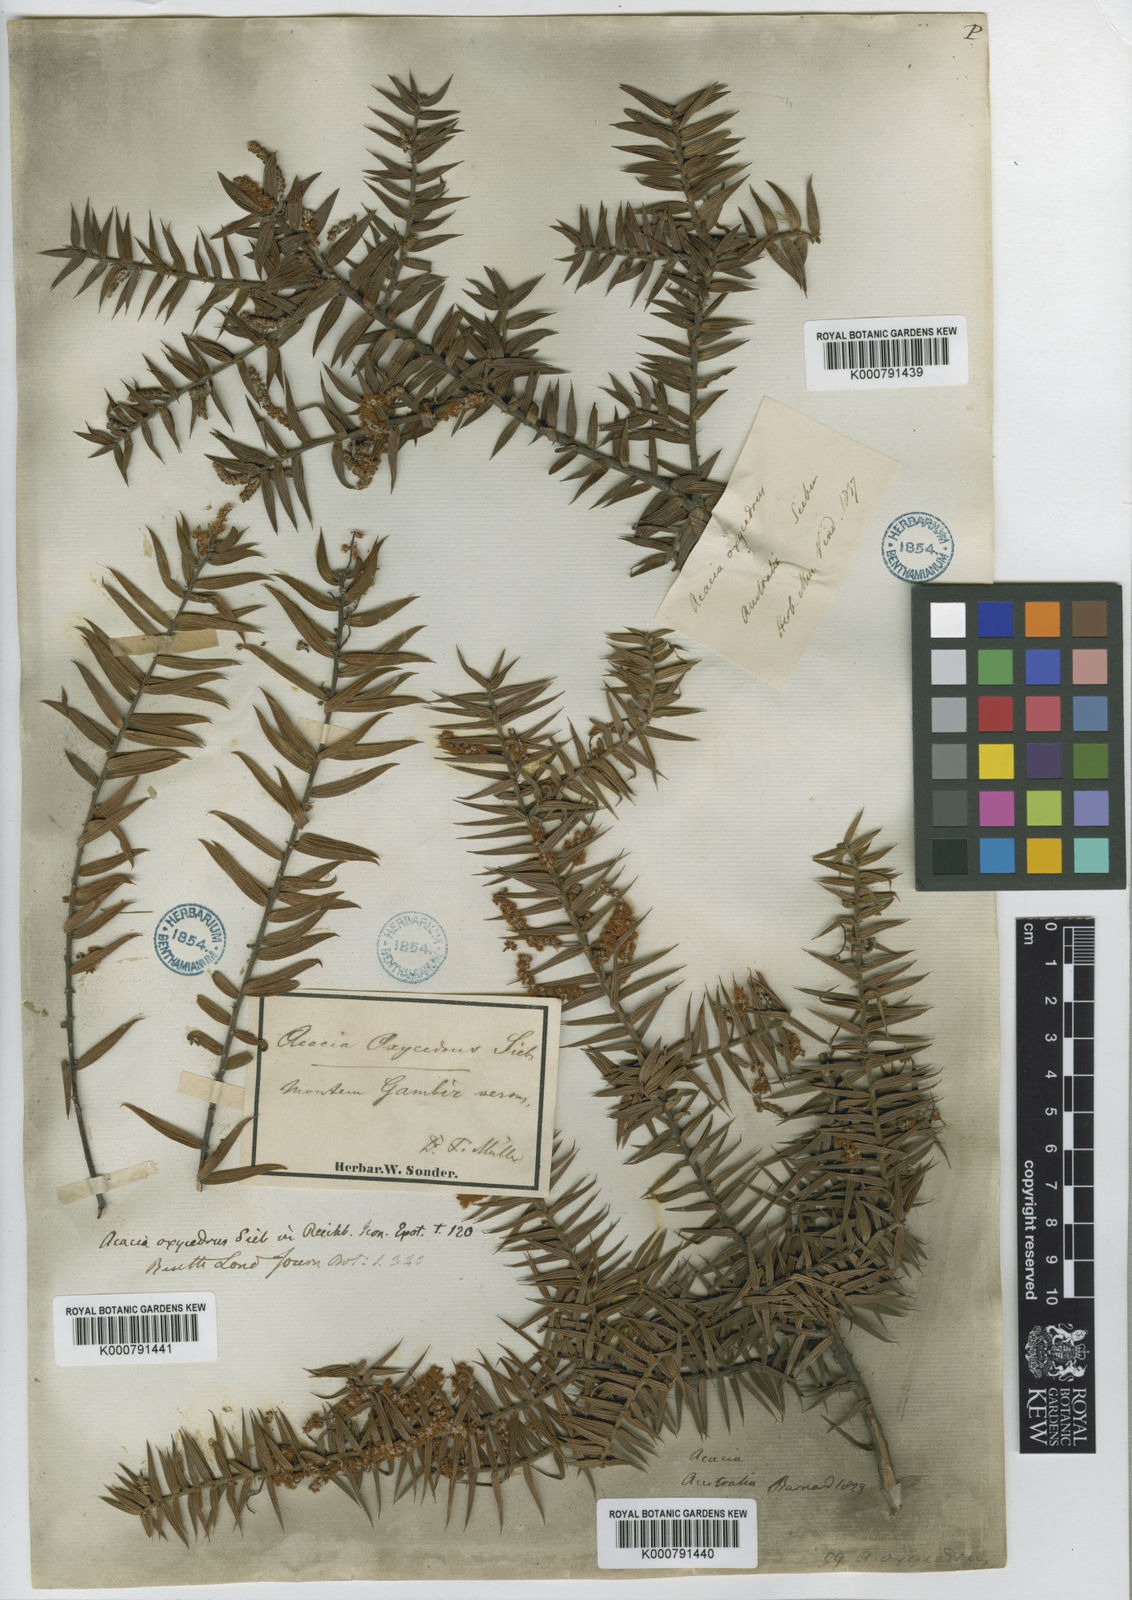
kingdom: Plantae
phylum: Tracheophyta
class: Magnoliopsida
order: Fabales
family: Fabaceae
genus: Acacia
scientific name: Acacia oxycedrus
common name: Spike wattle
